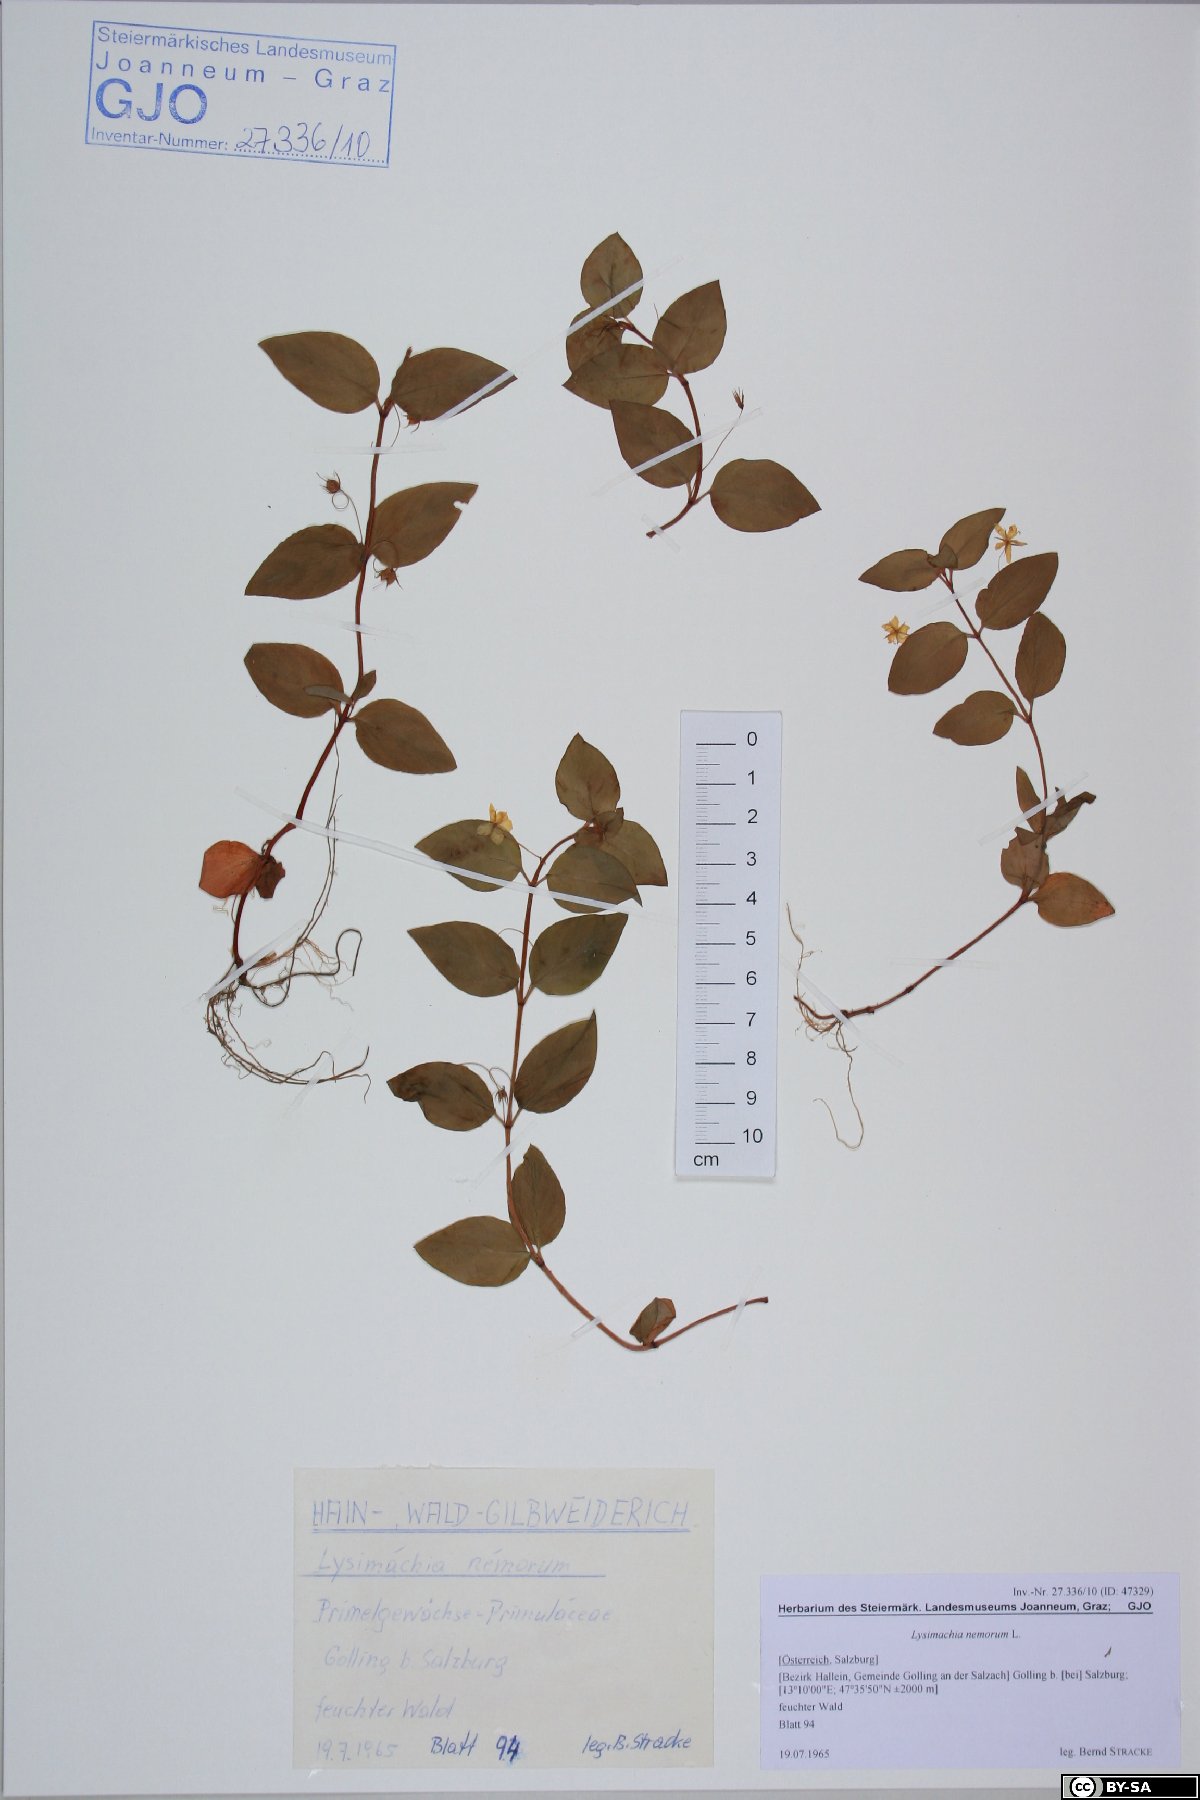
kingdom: Plantae
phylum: Tracheophyta
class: Magnoliopsida
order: Ericales
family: Primulaceae
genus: Lysimachia
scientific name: Lysimachia nemorum
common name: Yellow pimpernel
